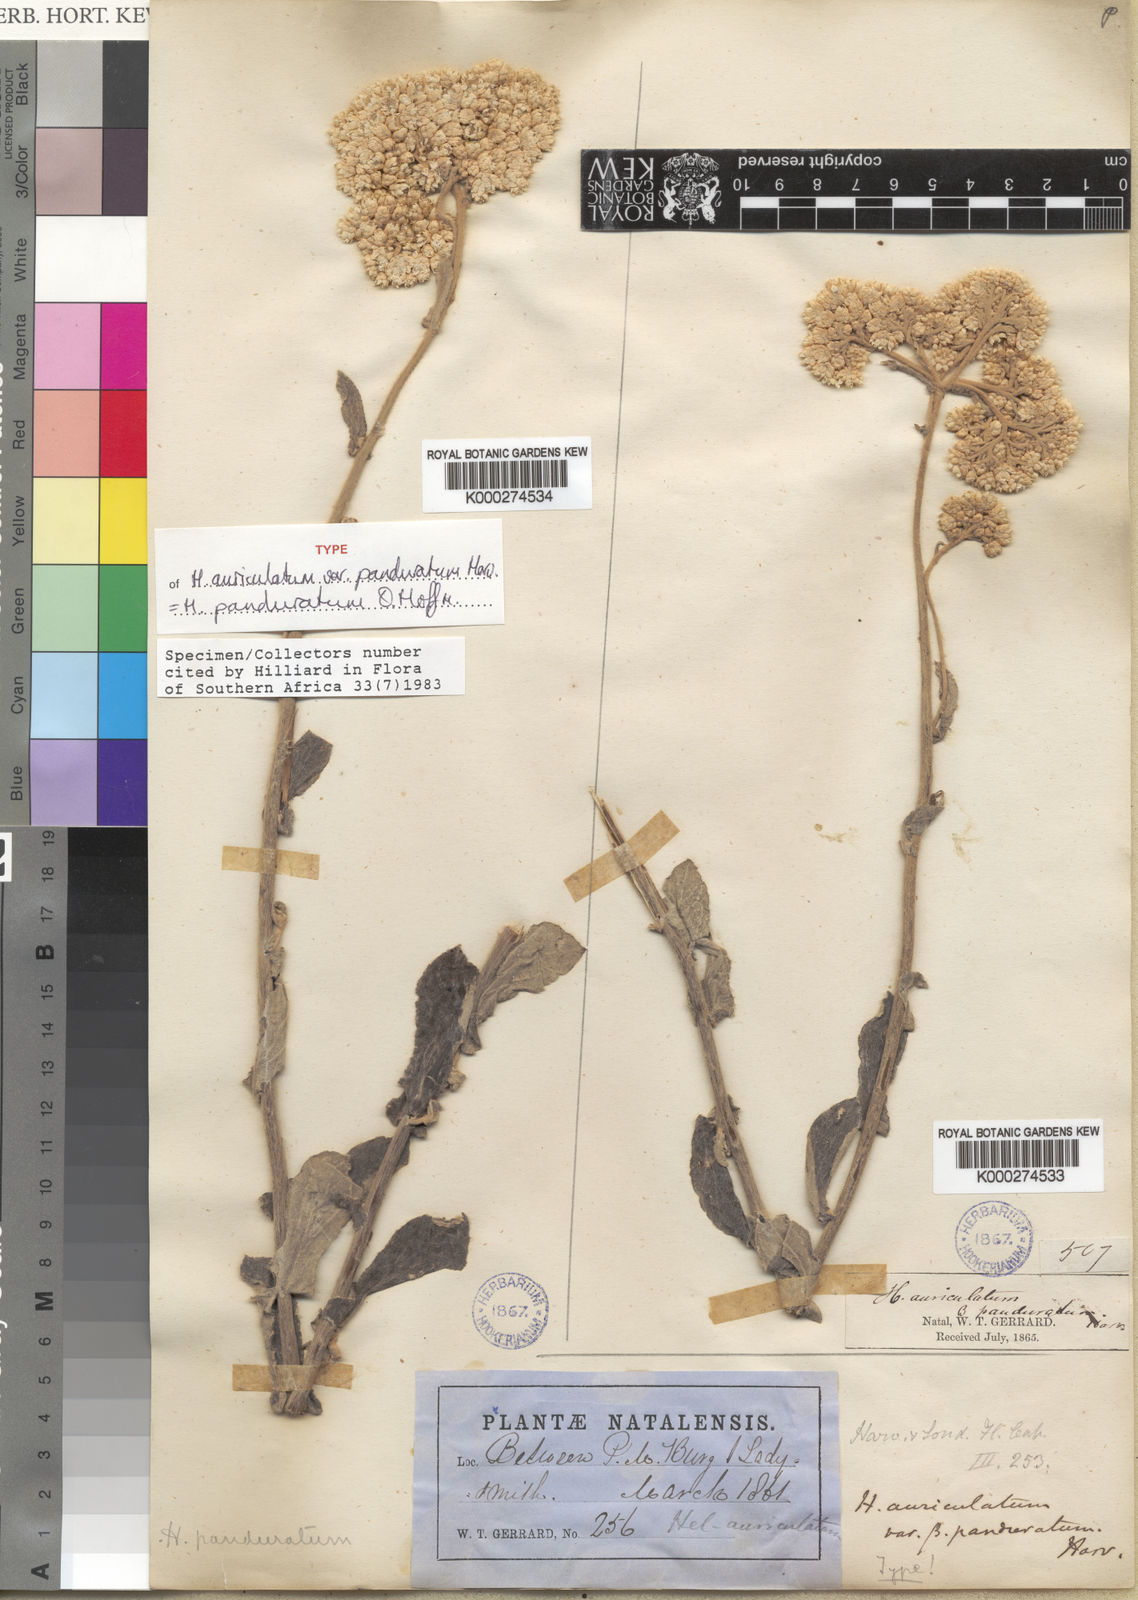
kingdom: Plantae
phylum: Tracheophyta
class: Magnoliopsida
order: Asterales
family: Asteraceae
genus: Helichrysum
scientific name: Helichrysum
